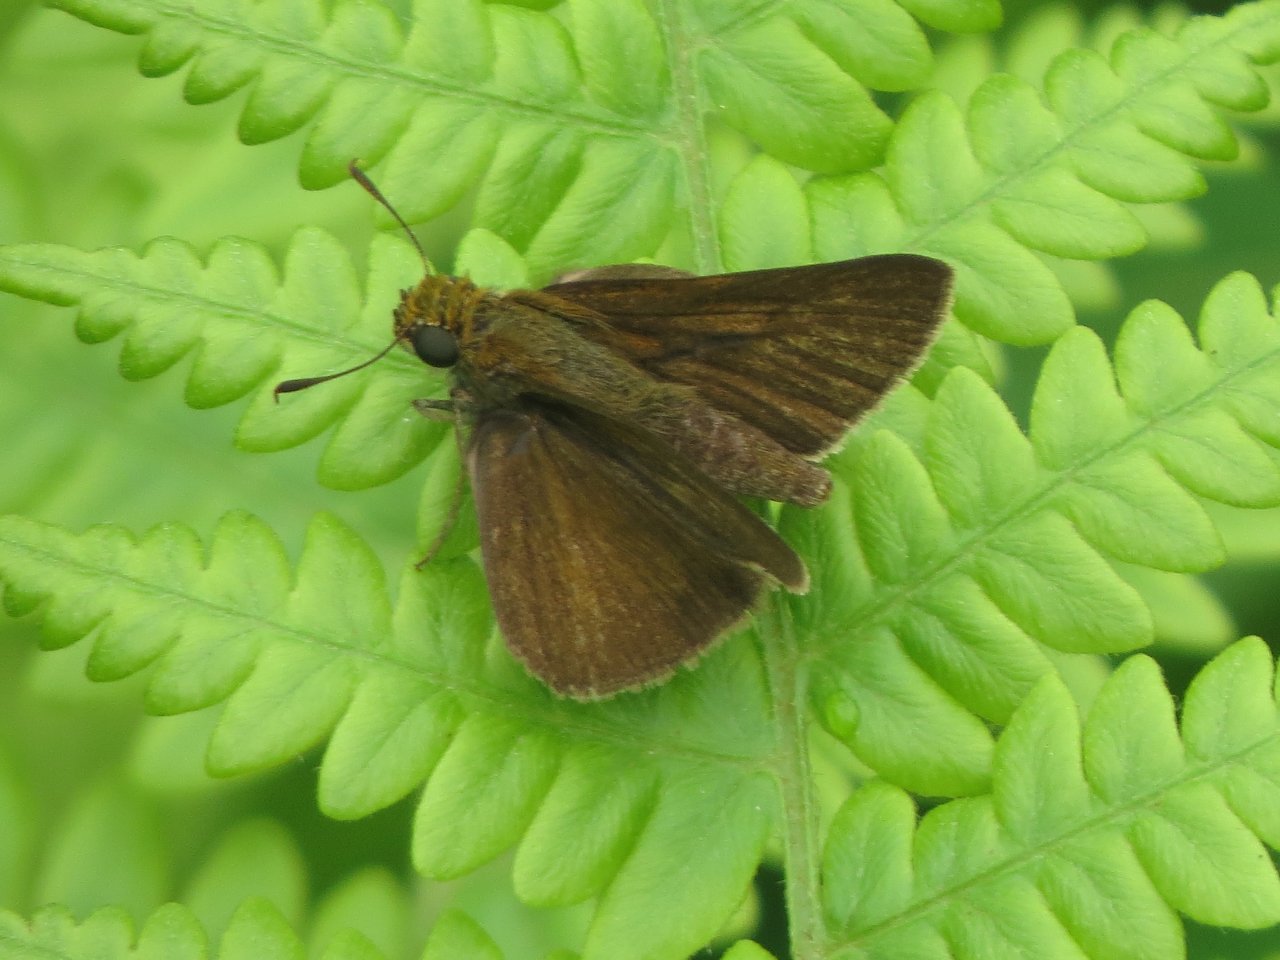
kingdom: Animalia
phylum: Arthropoda
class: Insecta
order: Lepidoptera
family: Hesperiidae
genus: Euphyes
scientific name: Euphyes vestris
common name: Dun Skipper
